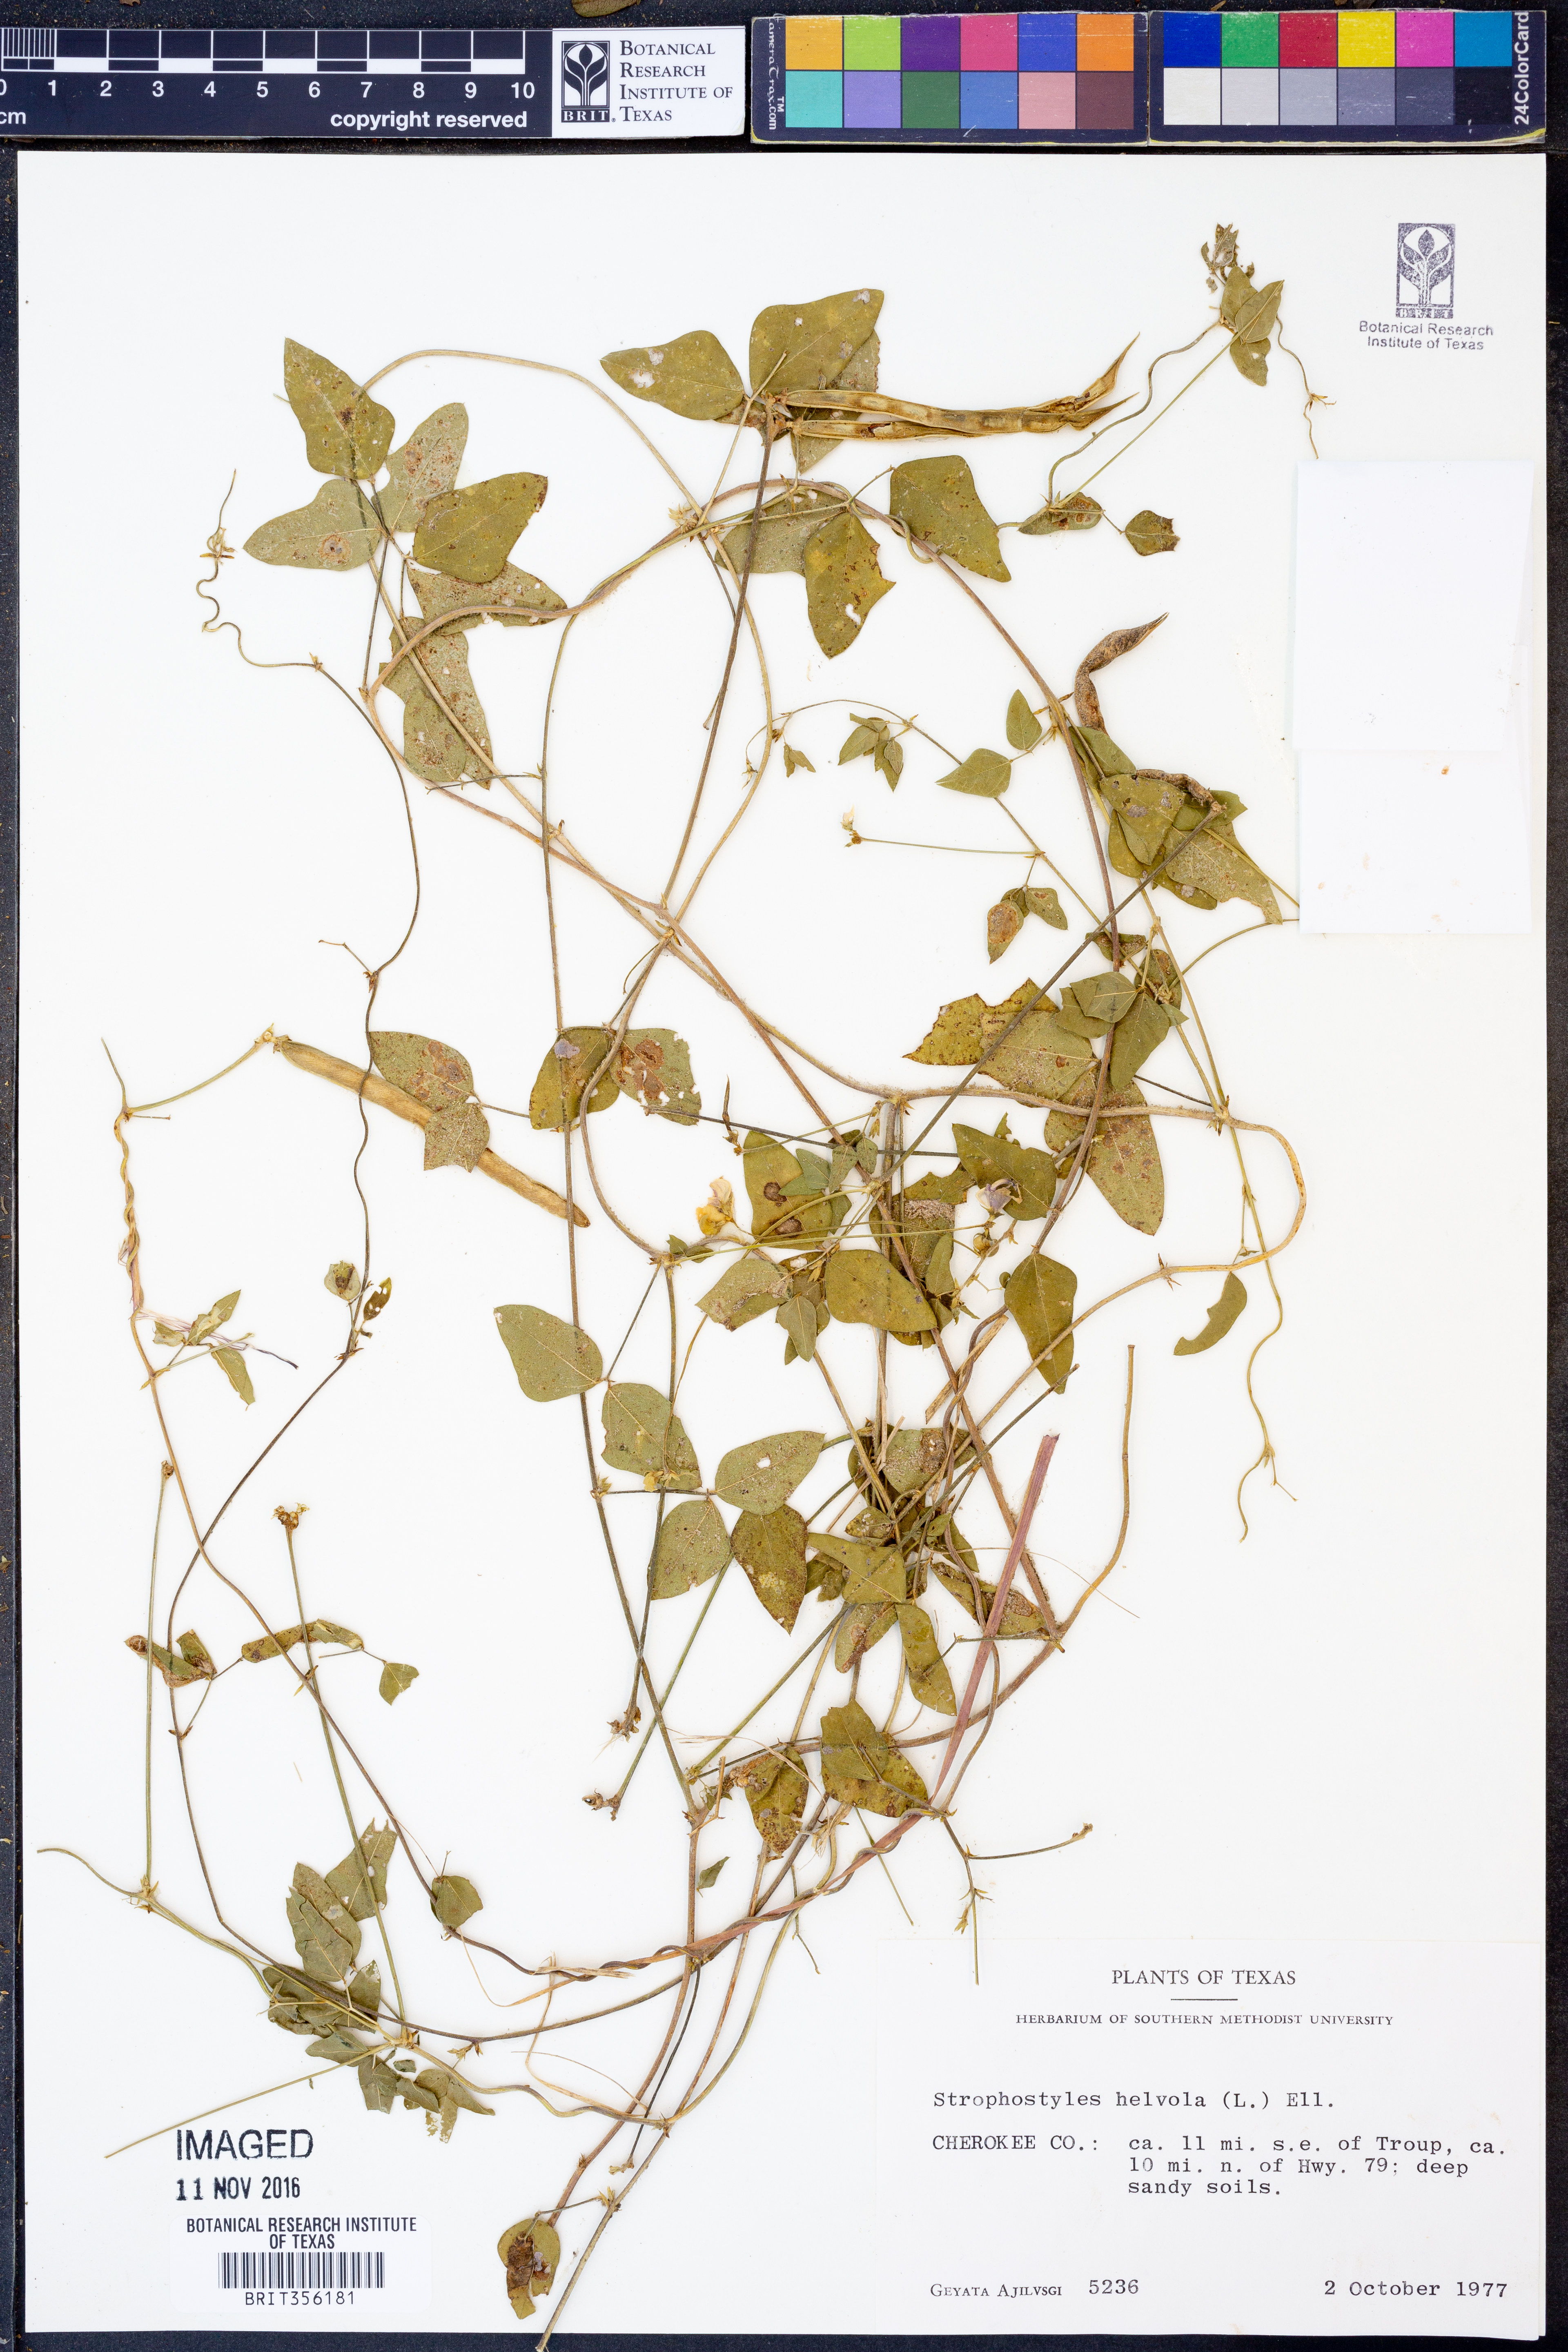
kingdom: Plantae
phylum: Tracheophyta
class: Magnoliopsida
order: Fabales
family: Fabaceae
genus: Strophostyles
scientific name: Strophostyles helvola
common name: Trailing wild bean
